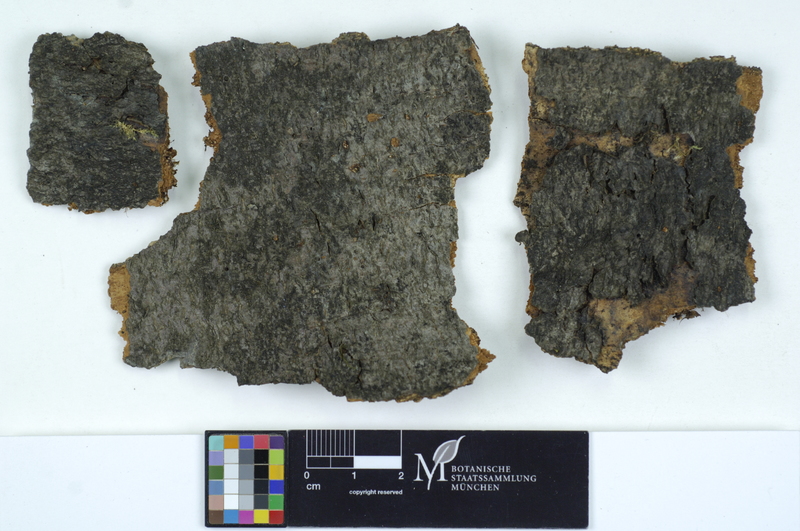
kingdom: Fungi
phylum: Basidiomycota
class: Atractiellomycetes
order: Atractiellales
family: Phleogenaceae
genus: Helicogloea
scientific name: Helicogloea lagerheimii
